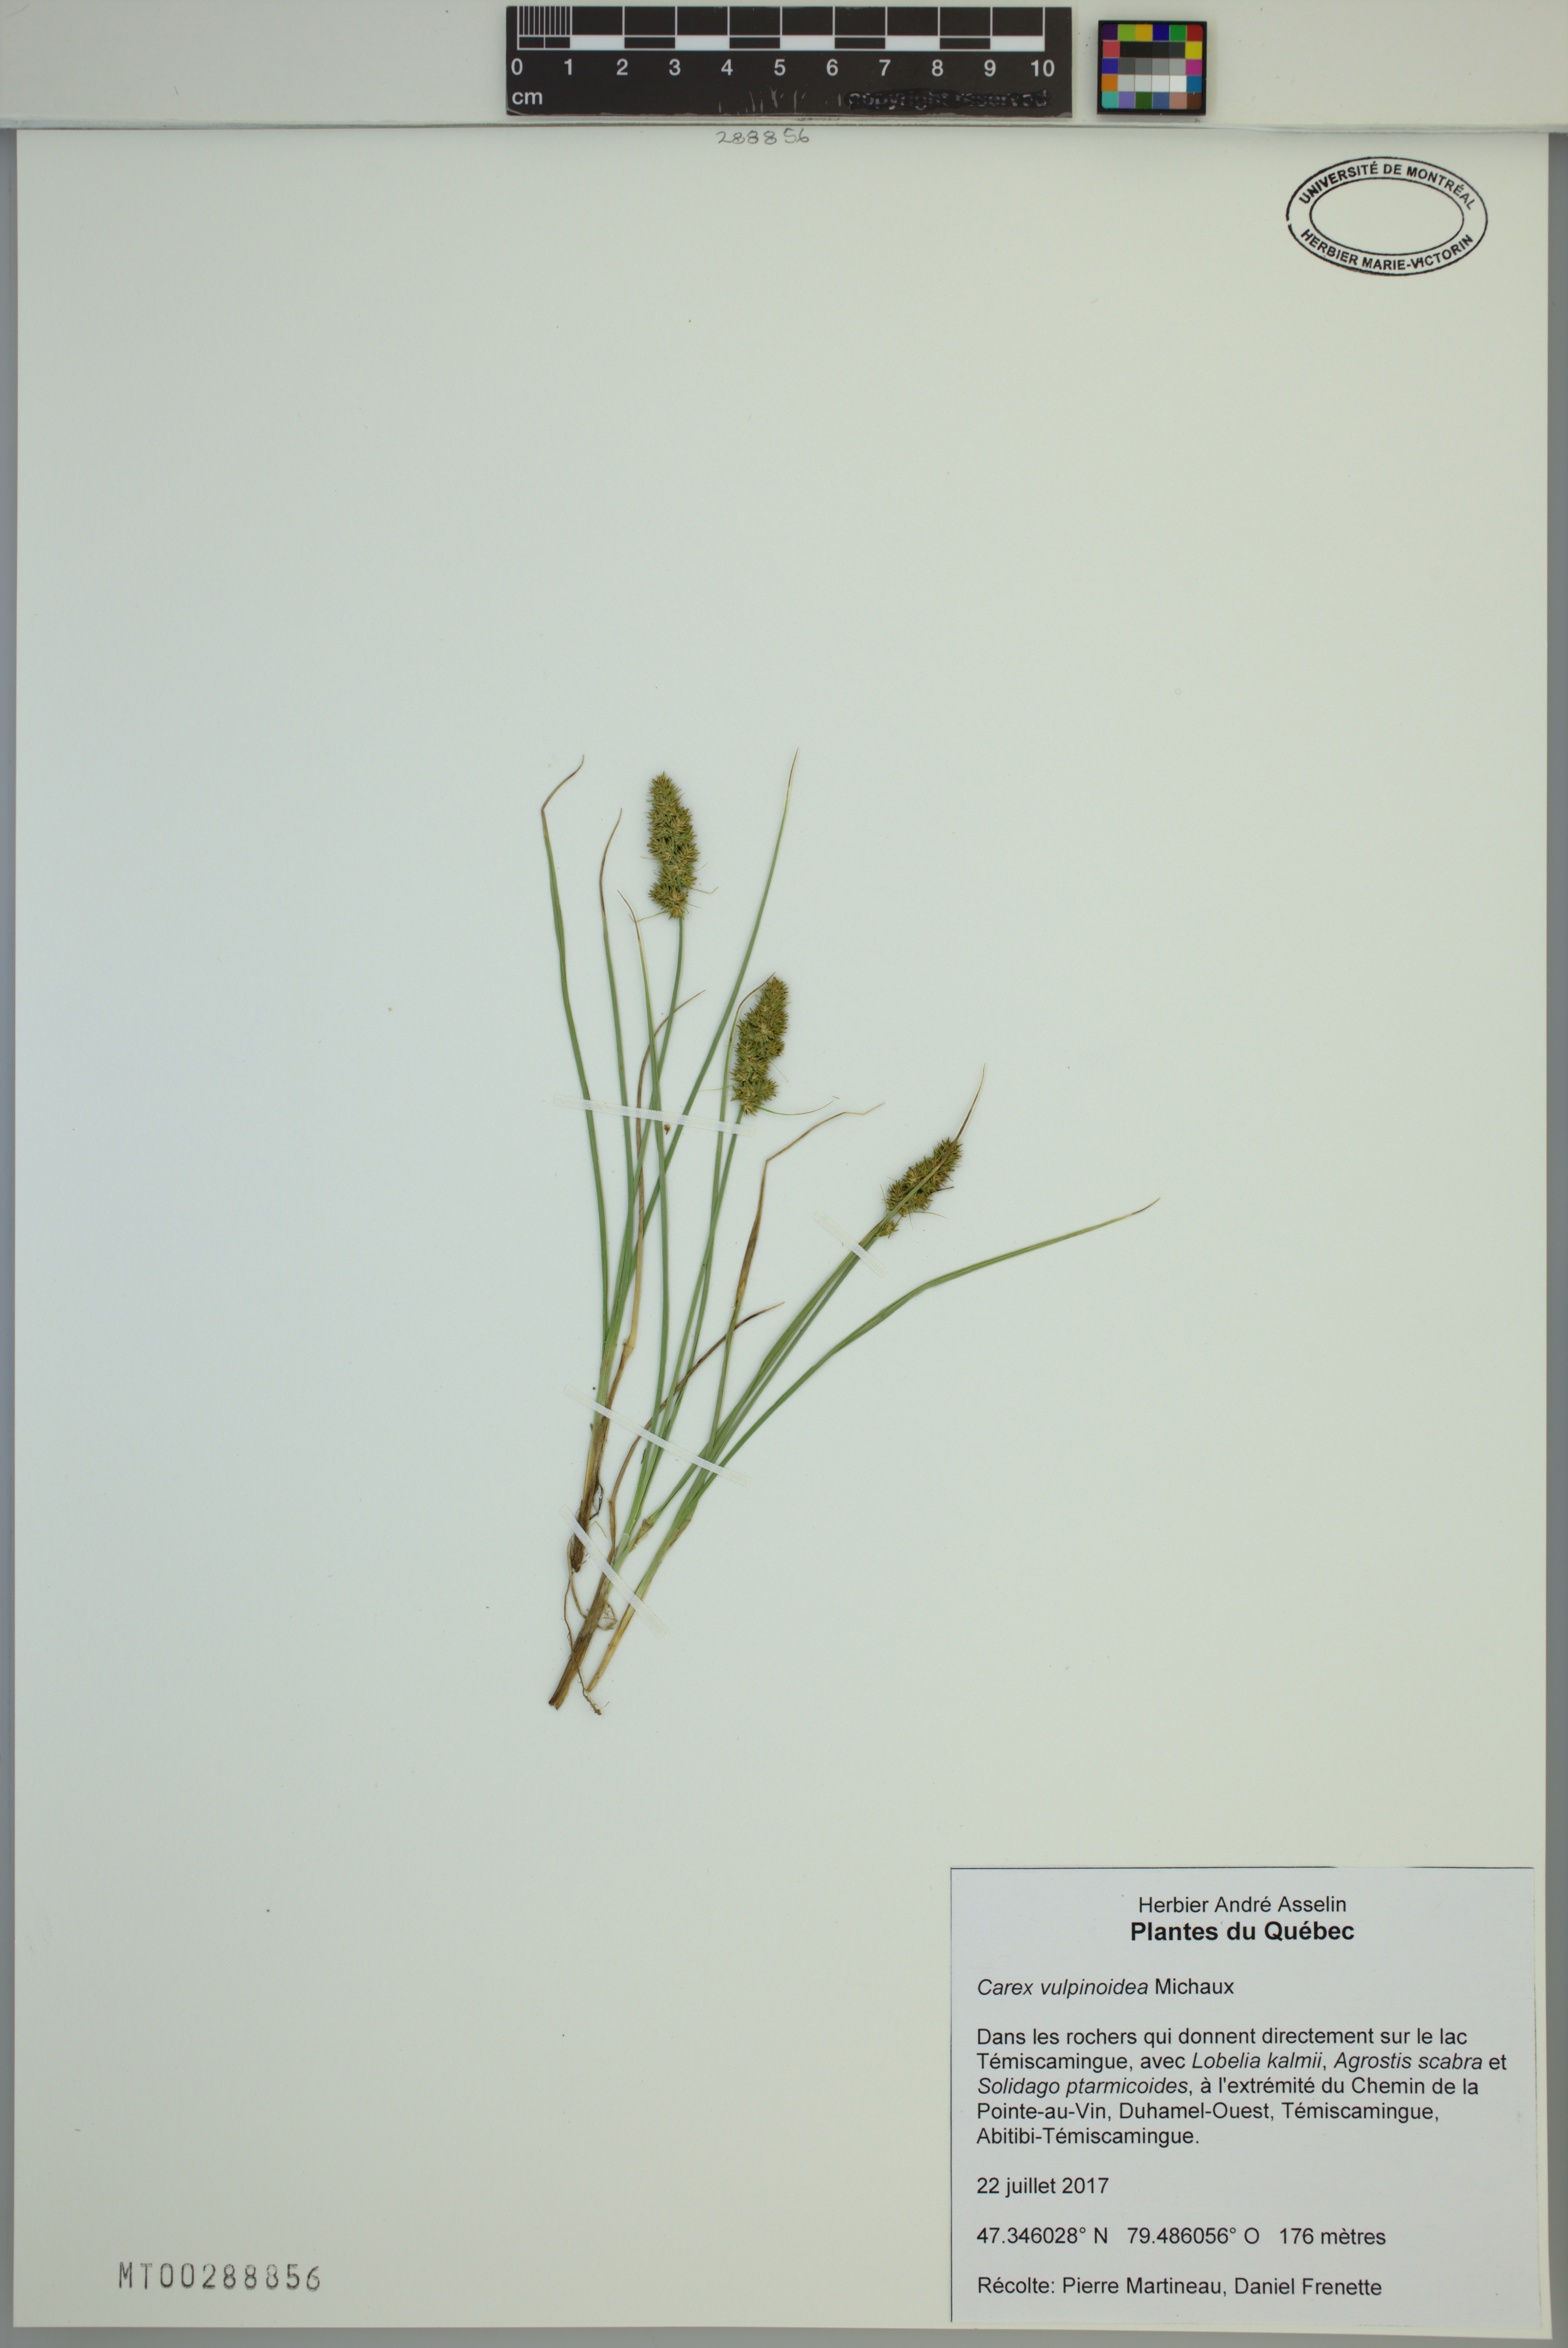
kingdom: Plantae
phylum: Tracheophyta
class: Liliopsida
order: Poales
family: Cyperaceae
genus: Carex
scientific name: Carex vulpinoidea
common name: American fox-sedge
